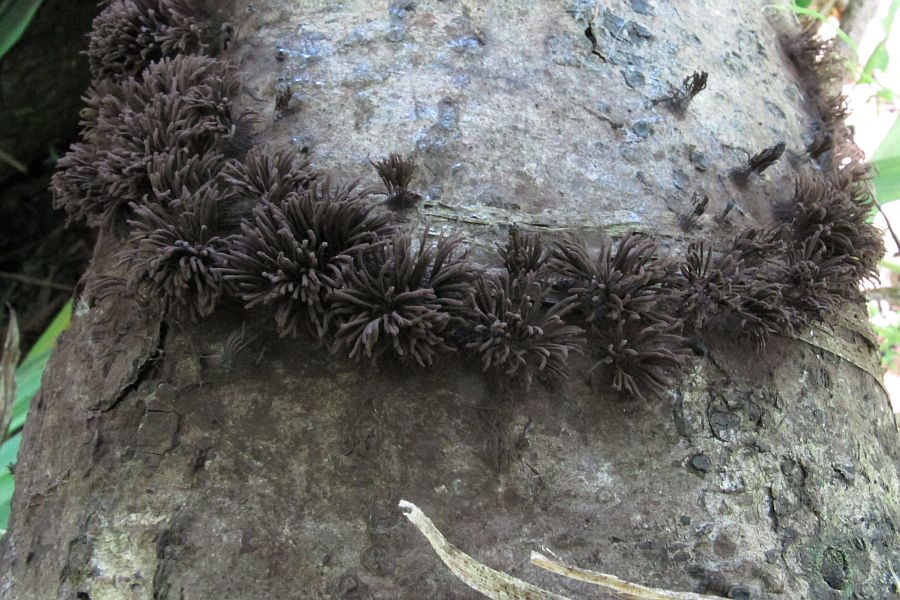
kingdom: Protozoa
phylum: Mycetozoa
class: Myxomycetes
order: Stemonitidales
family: Stemonitidaceae
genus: Stemonitis
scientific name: Stemonitis fusca
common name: sodbrun støvkølle
